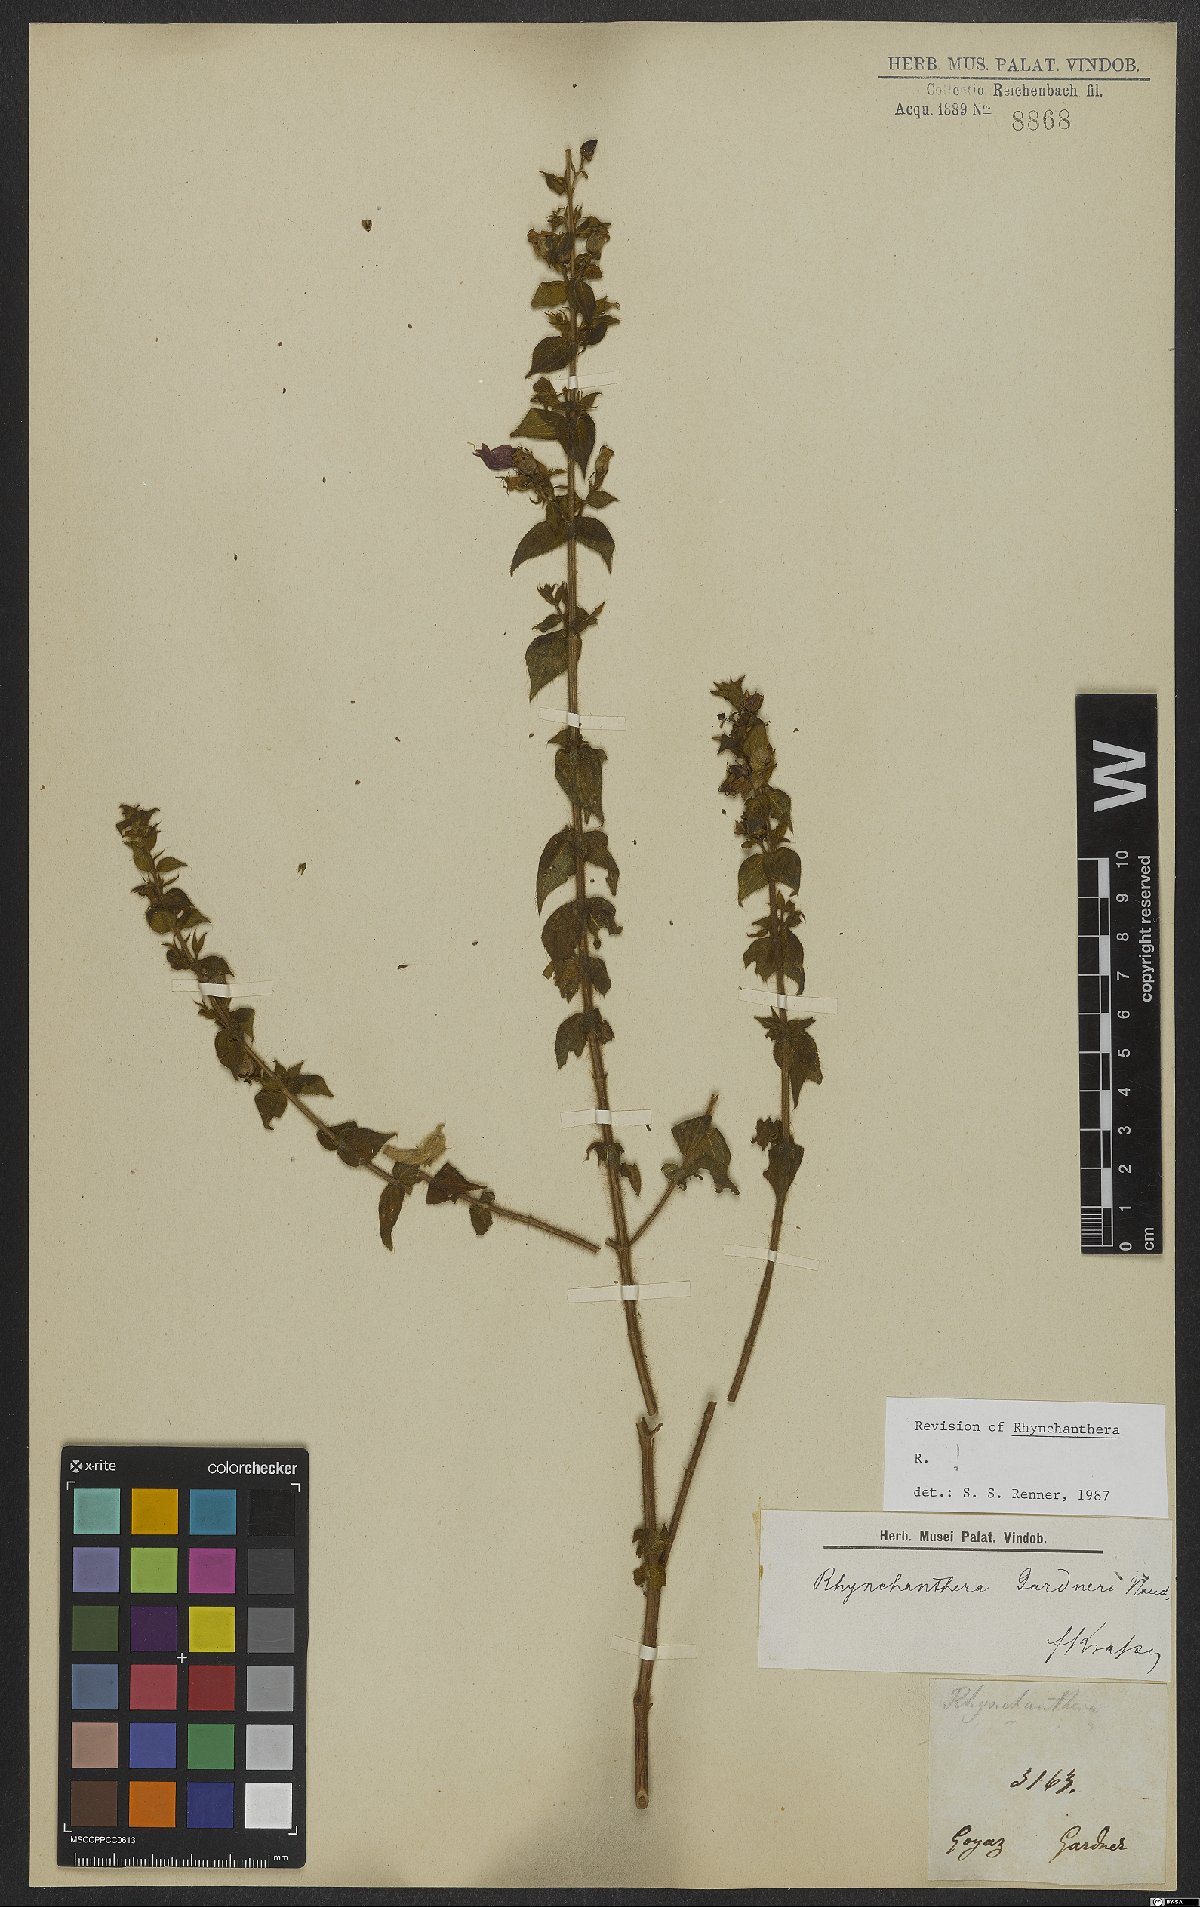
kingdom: Plantae
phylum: Tracheophyta
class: Magnoliopsida
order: Myrtales
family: Melastomataceae
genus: Rhynchanthera
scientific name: Rhynchanthera gardneri
